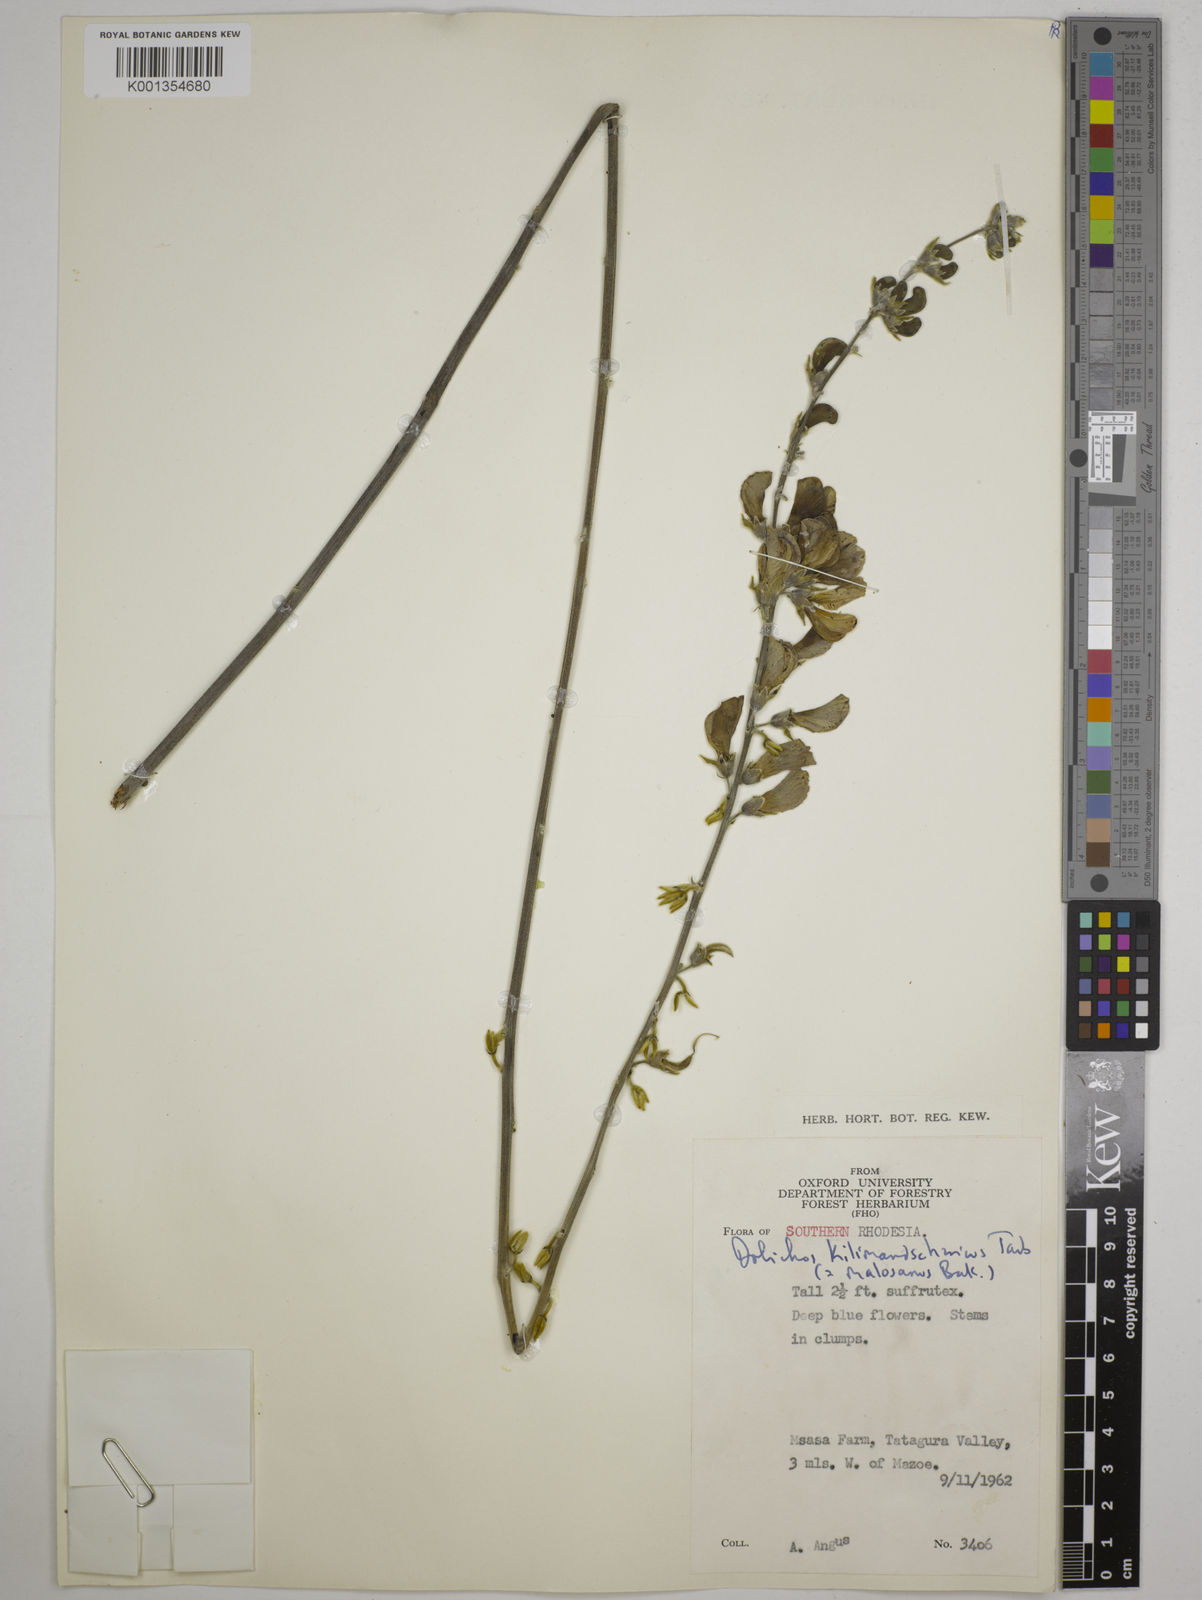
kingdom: Plantae
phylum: Tracheophyta
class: Magnoliopsida
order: Fabales
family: Fabaceae
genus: Dolichos
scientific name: Dolichos kilimandscharicus
